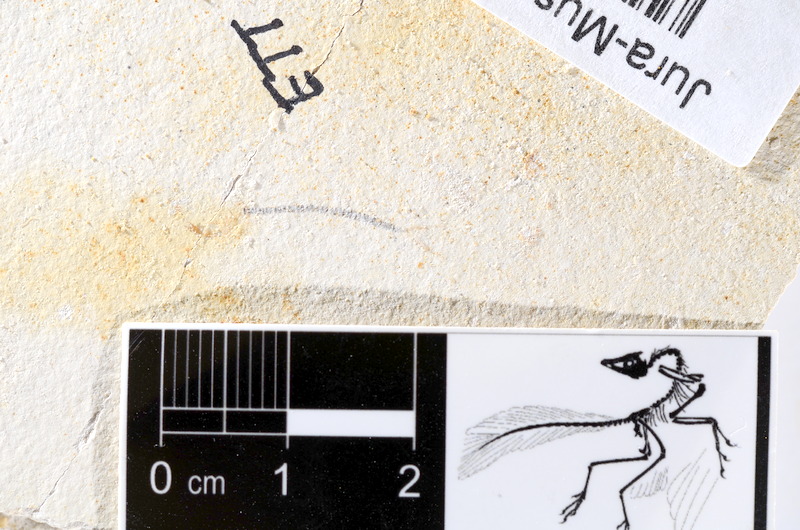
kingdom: Animalia
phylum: Chordata
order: Salmoniformes
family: Orthogonikleithridae
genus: Orthogonikleithrus
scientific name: Orthogonikleithrus hoelli
